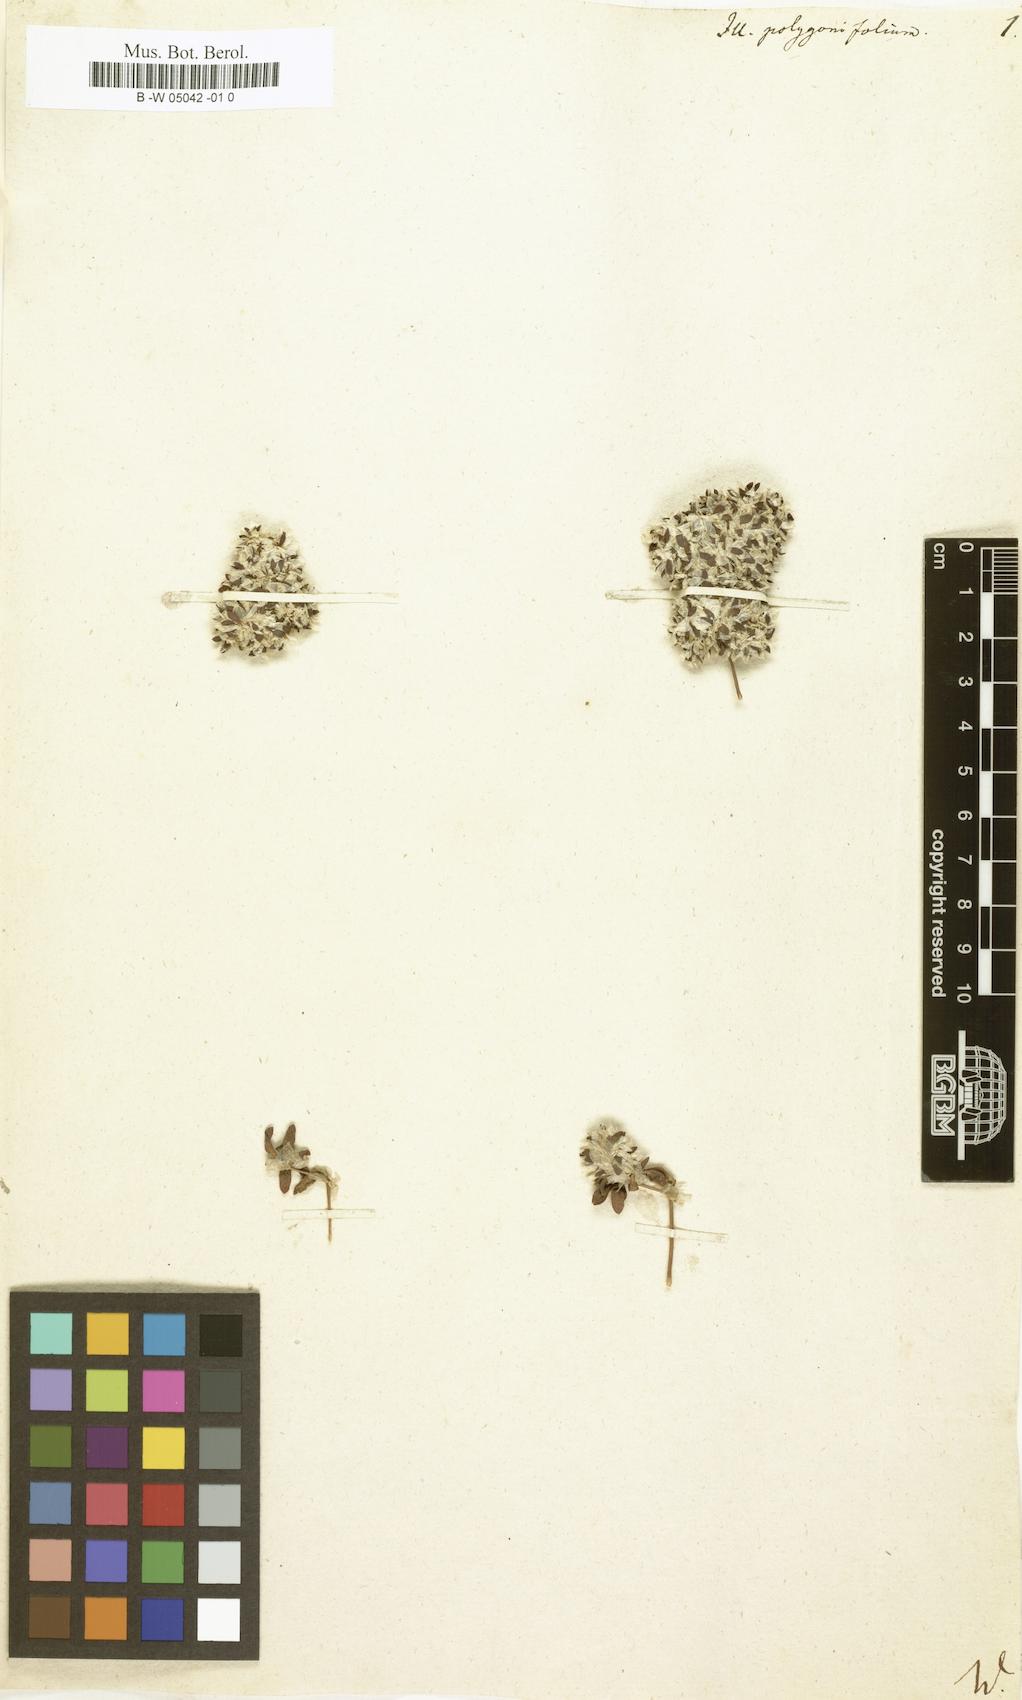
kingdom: Plantae
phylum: Tracheophyta
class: Magnoliopsida
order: Caryophyllales
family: Caryophyllaceae
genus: Paronychia
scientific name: Paronychia polygonifolia
